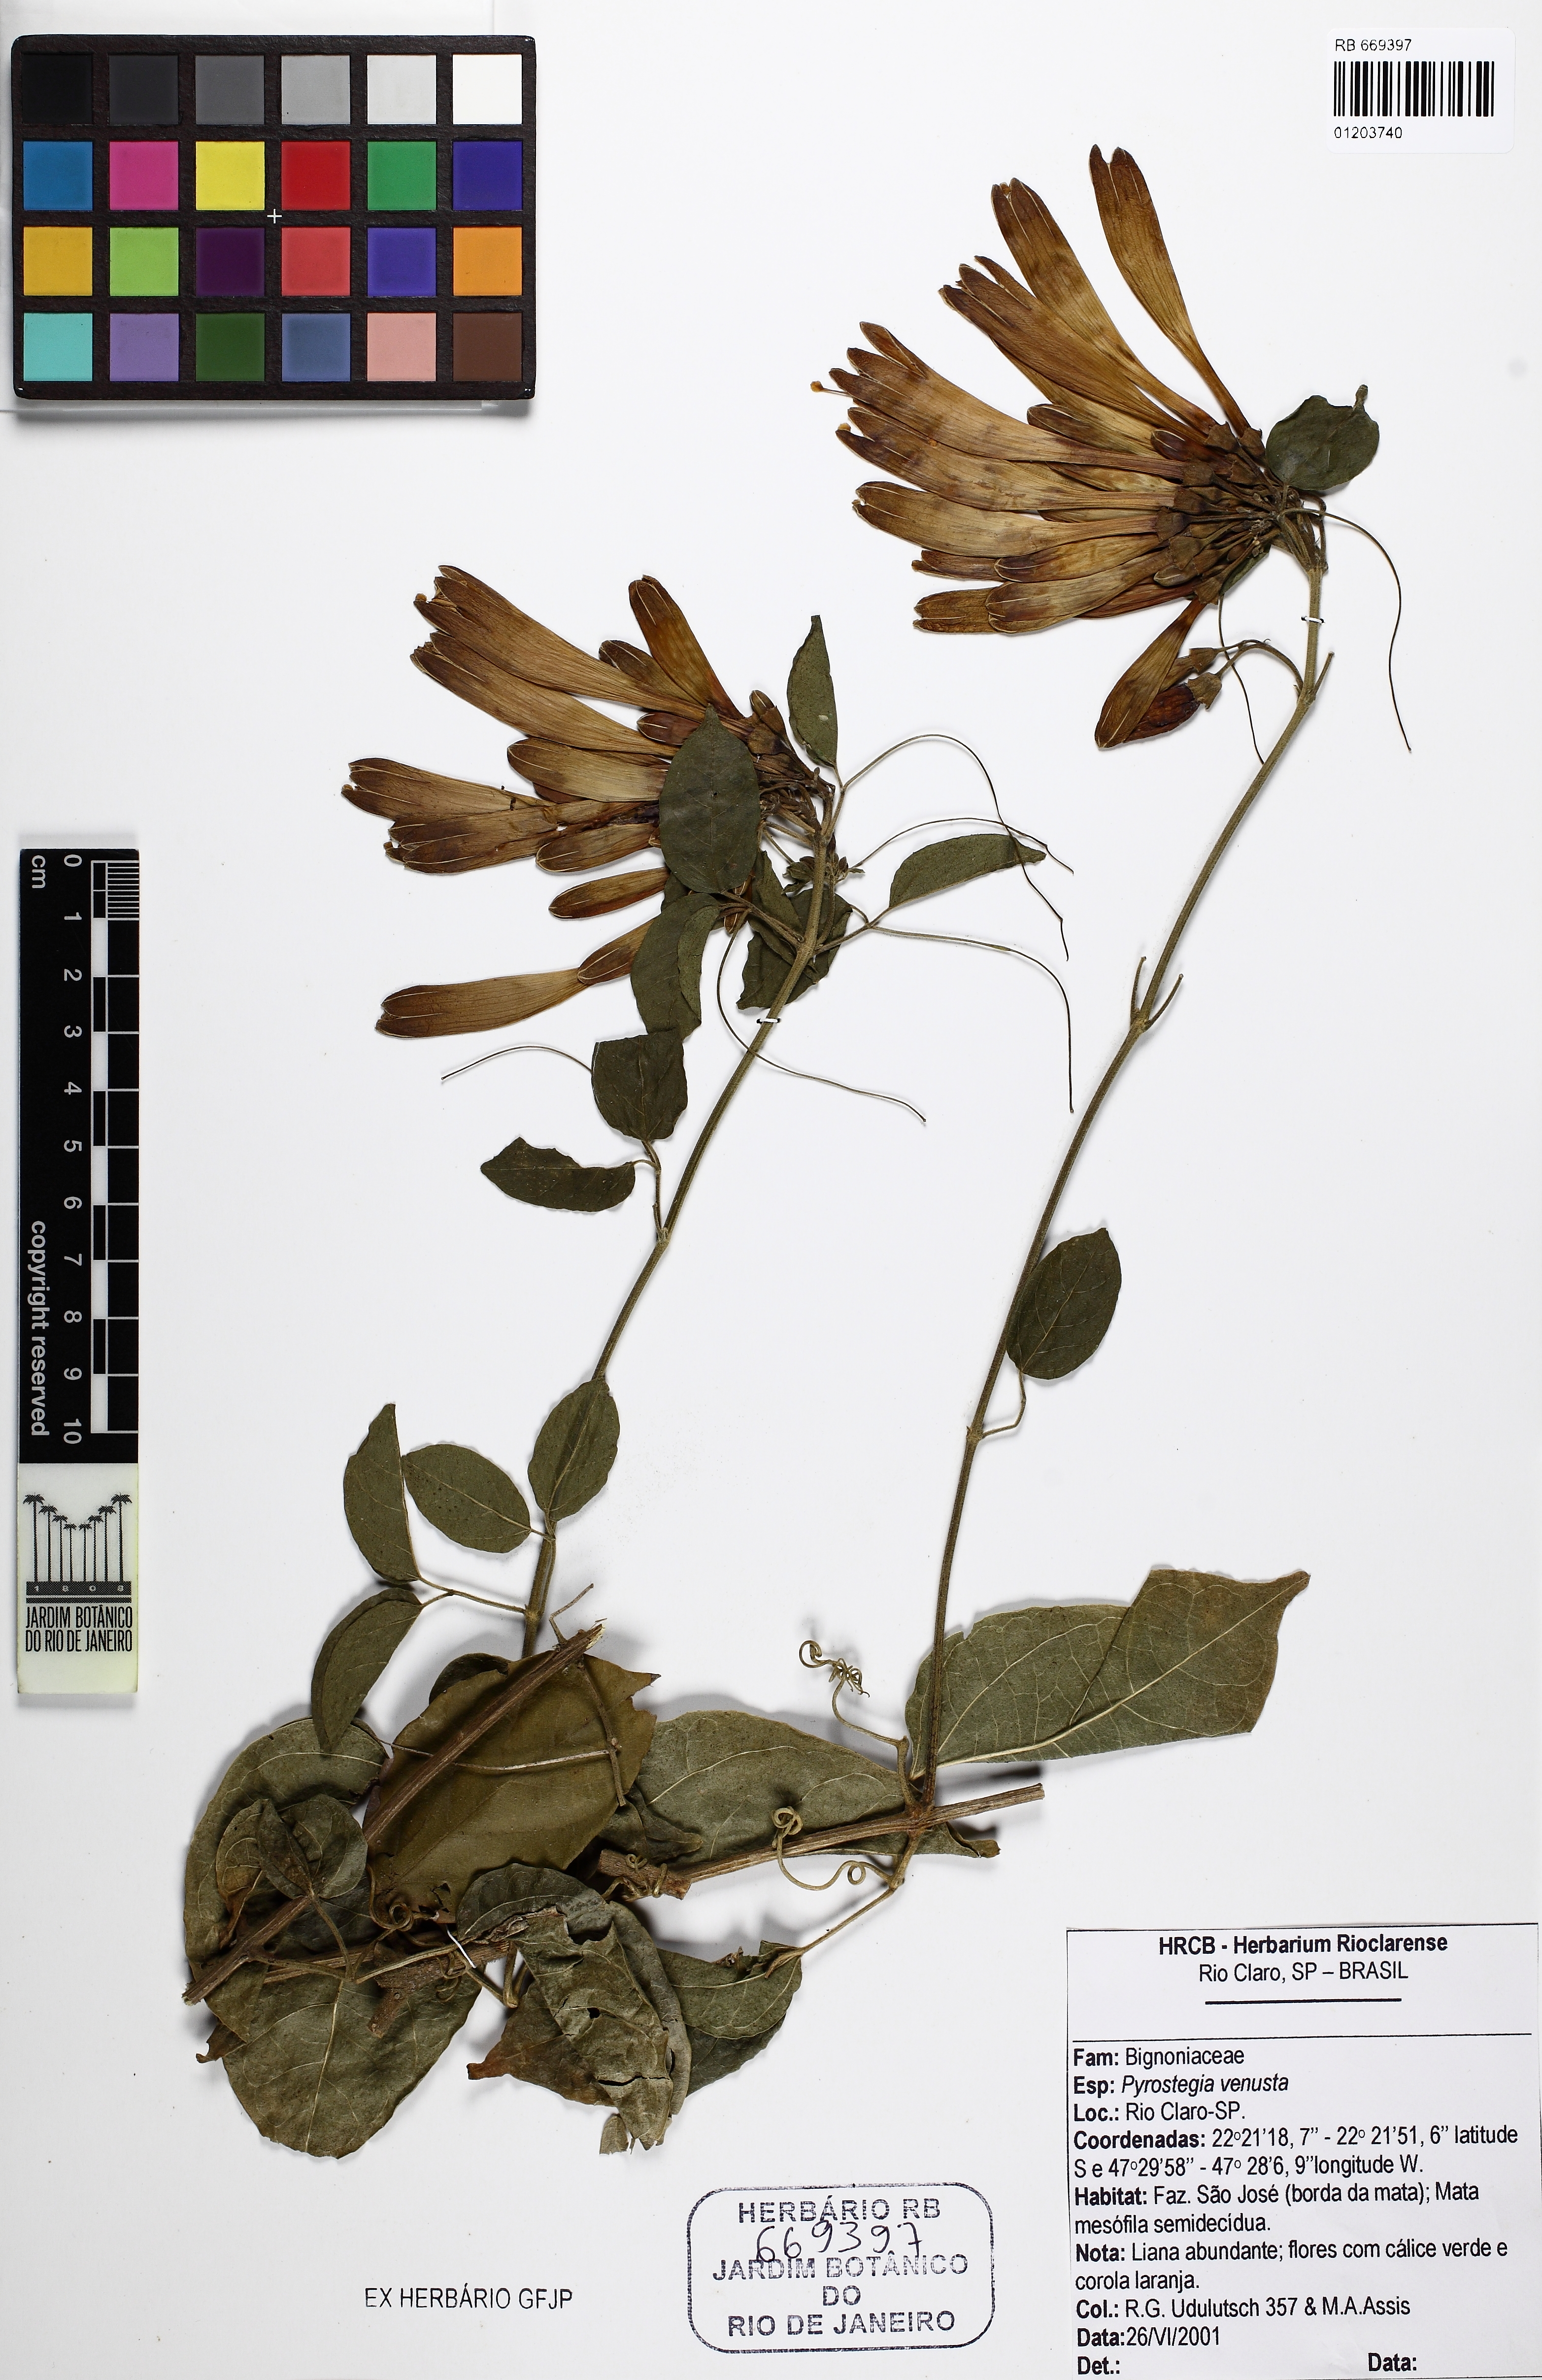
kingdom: Plantae
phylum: Tracheophyta
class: Magnoliopsida
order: Lamiales
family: Bignoniaceae
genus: Pyrostegia
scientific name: Pyrostegia venusta
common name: Flamevine
